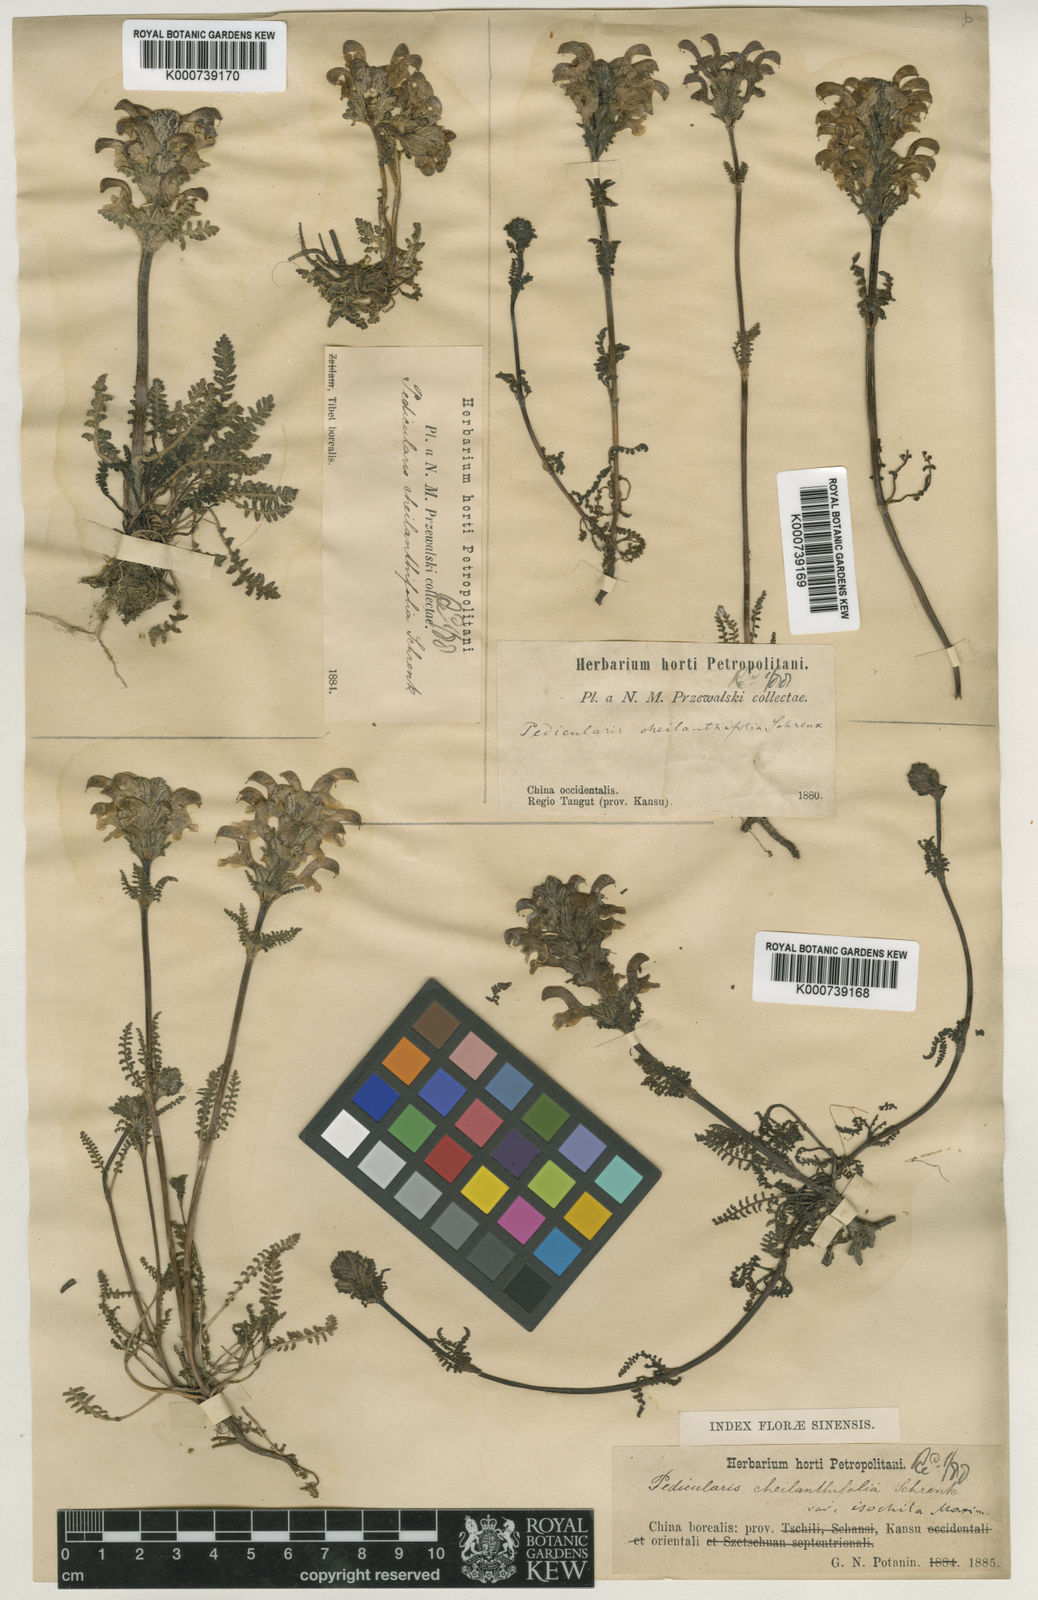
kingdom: Plantae
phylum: Tracheophyta
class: Magnoliopsida
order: Lamiales
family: Orobanchaceae
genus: Pedicularis
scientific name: Pedicularis cheilanthifolia
